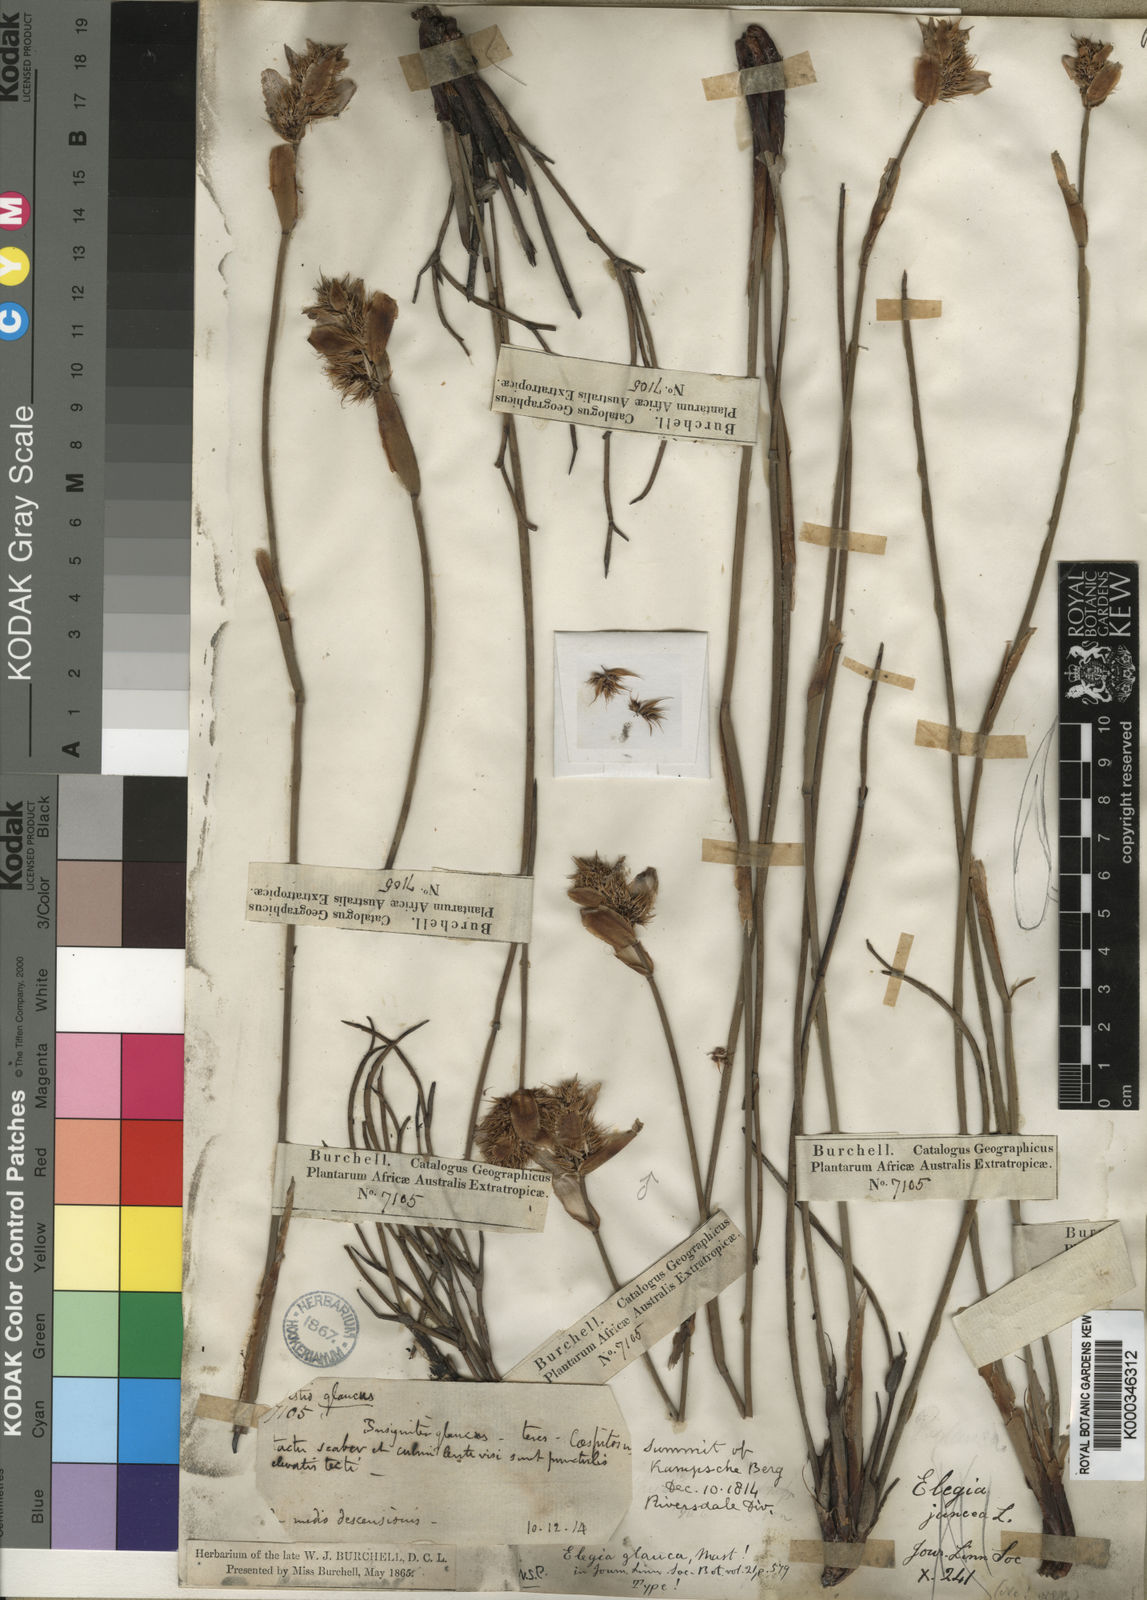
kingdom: Plantae
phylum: Tracheophyta
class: Liliopsida
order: Poales
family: Restionaceae
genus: Elegia
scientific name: Elegia asperiflora
